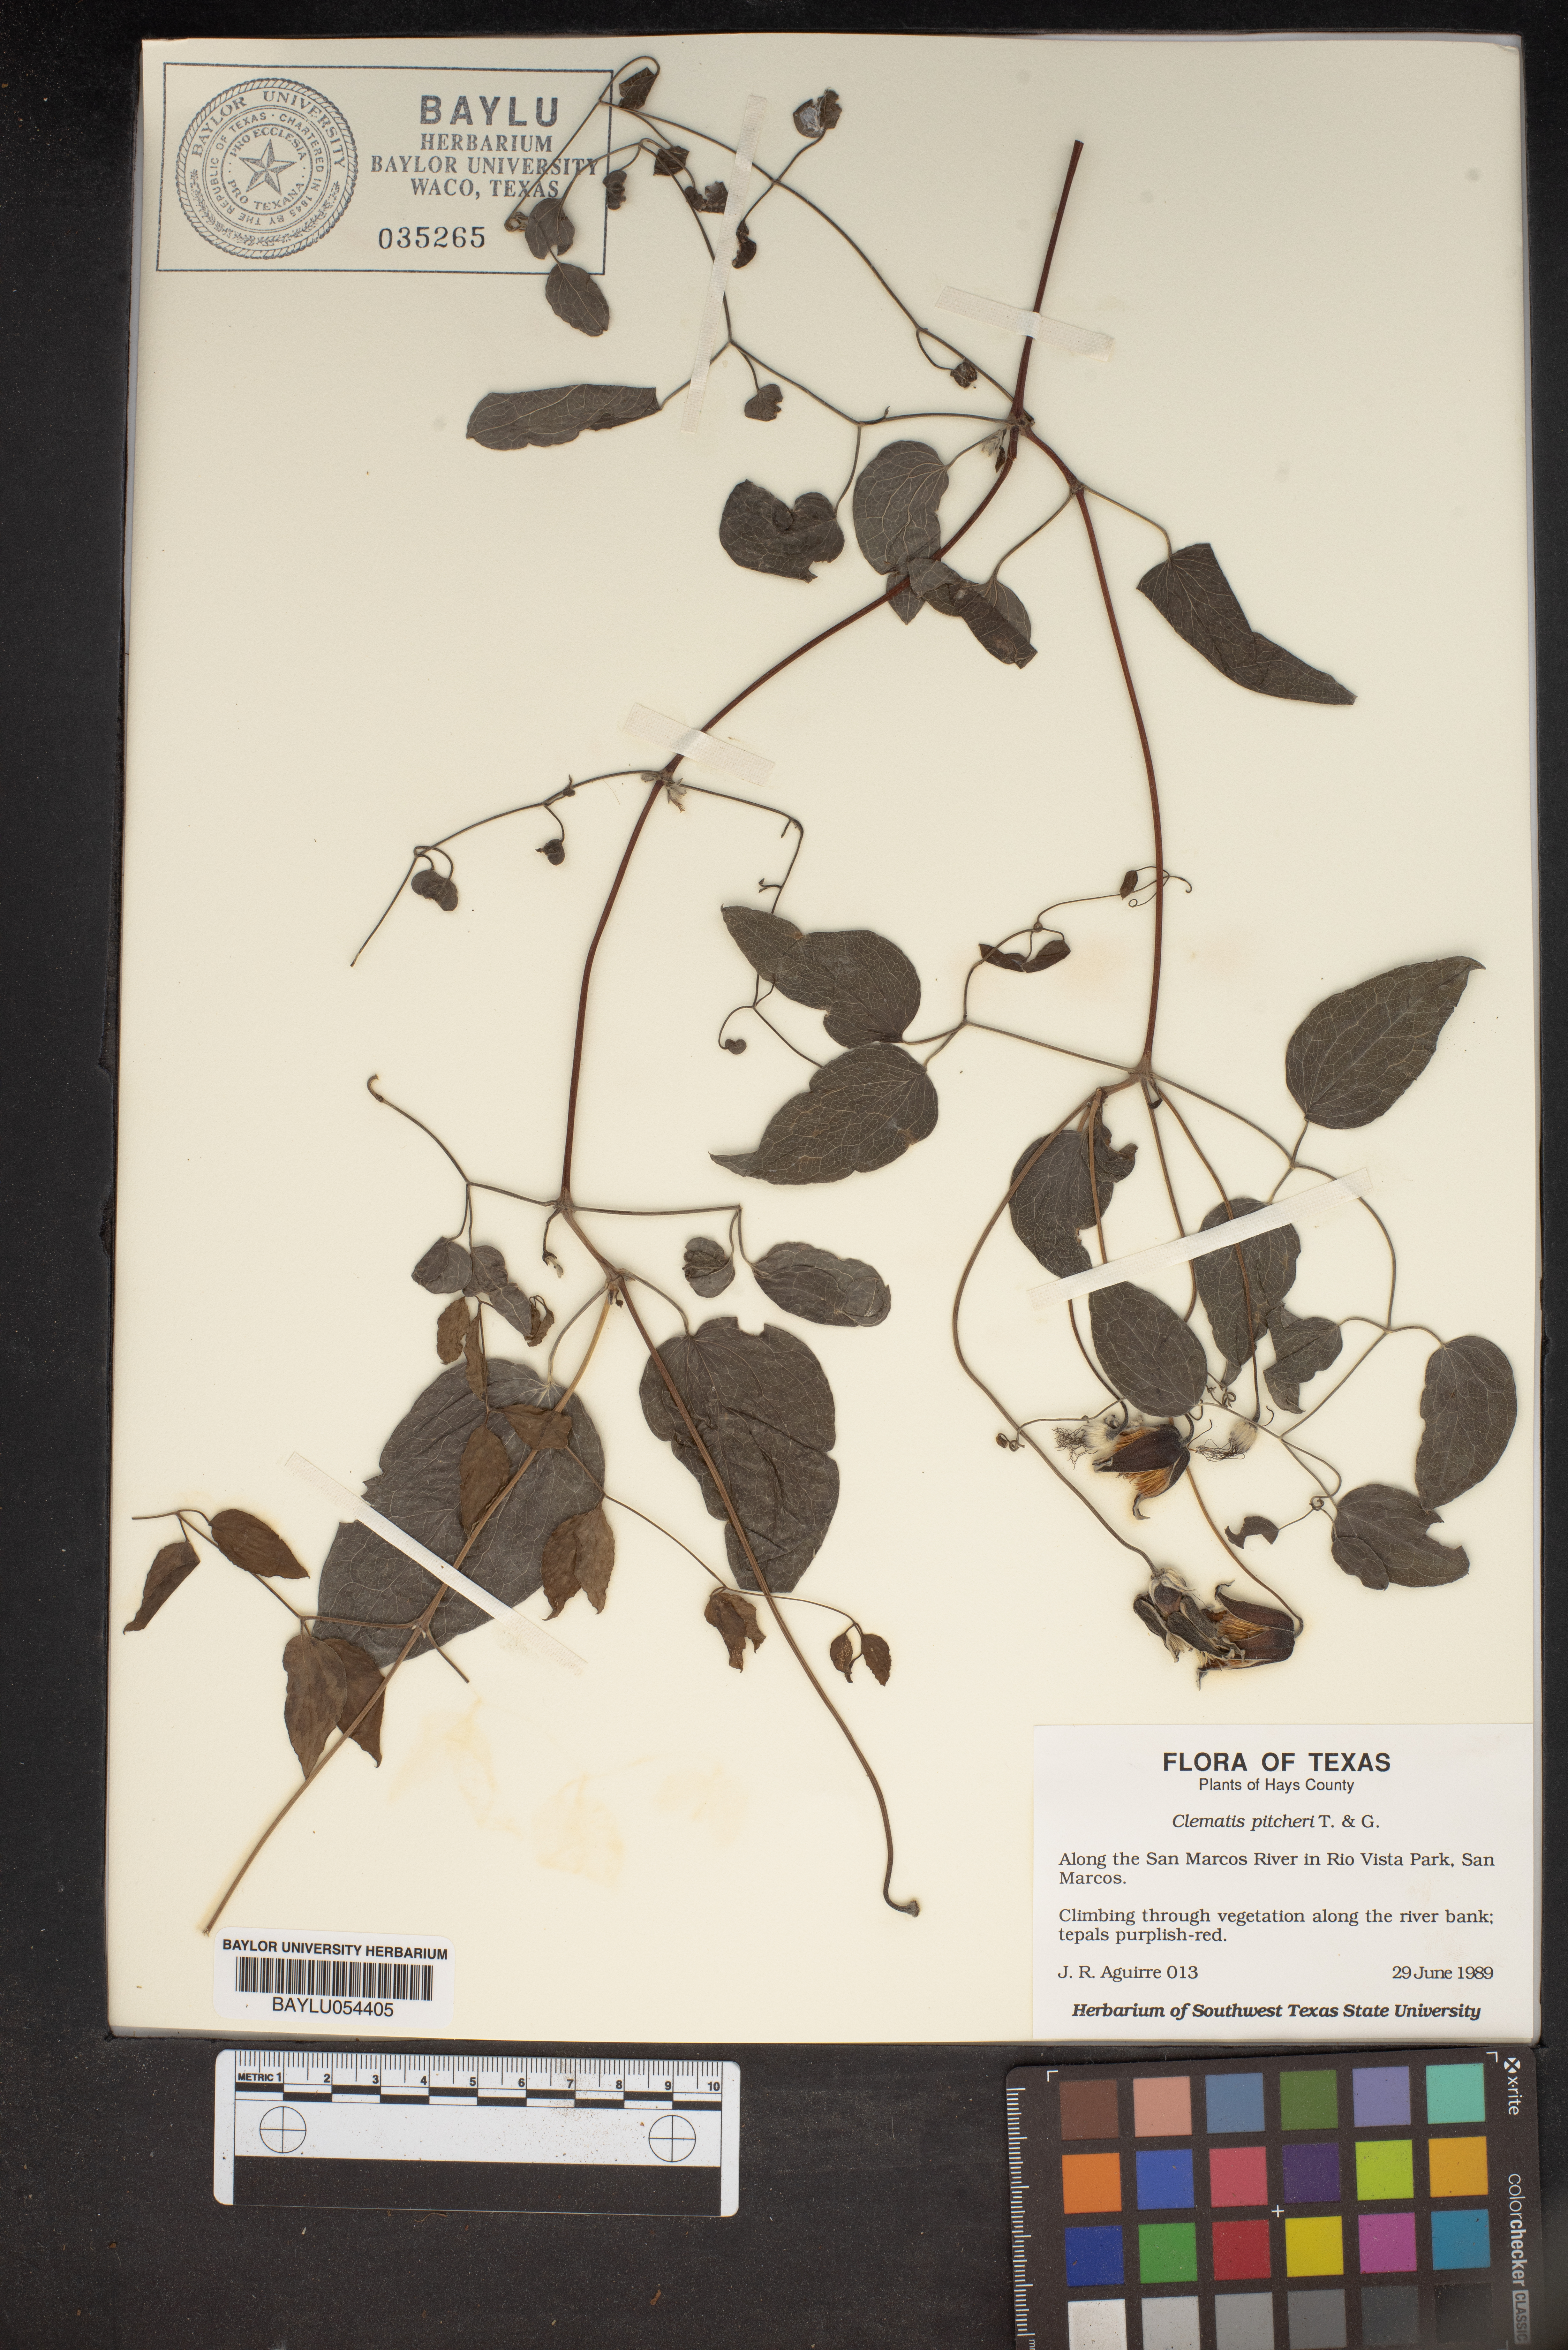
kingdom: Plantae
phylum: Tracheophyta
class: Magnoliopsida
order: Ranunculales
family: Ranunculaceae
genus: Clematis
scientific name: Clematis pitcheri
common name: Bellflower clematis
